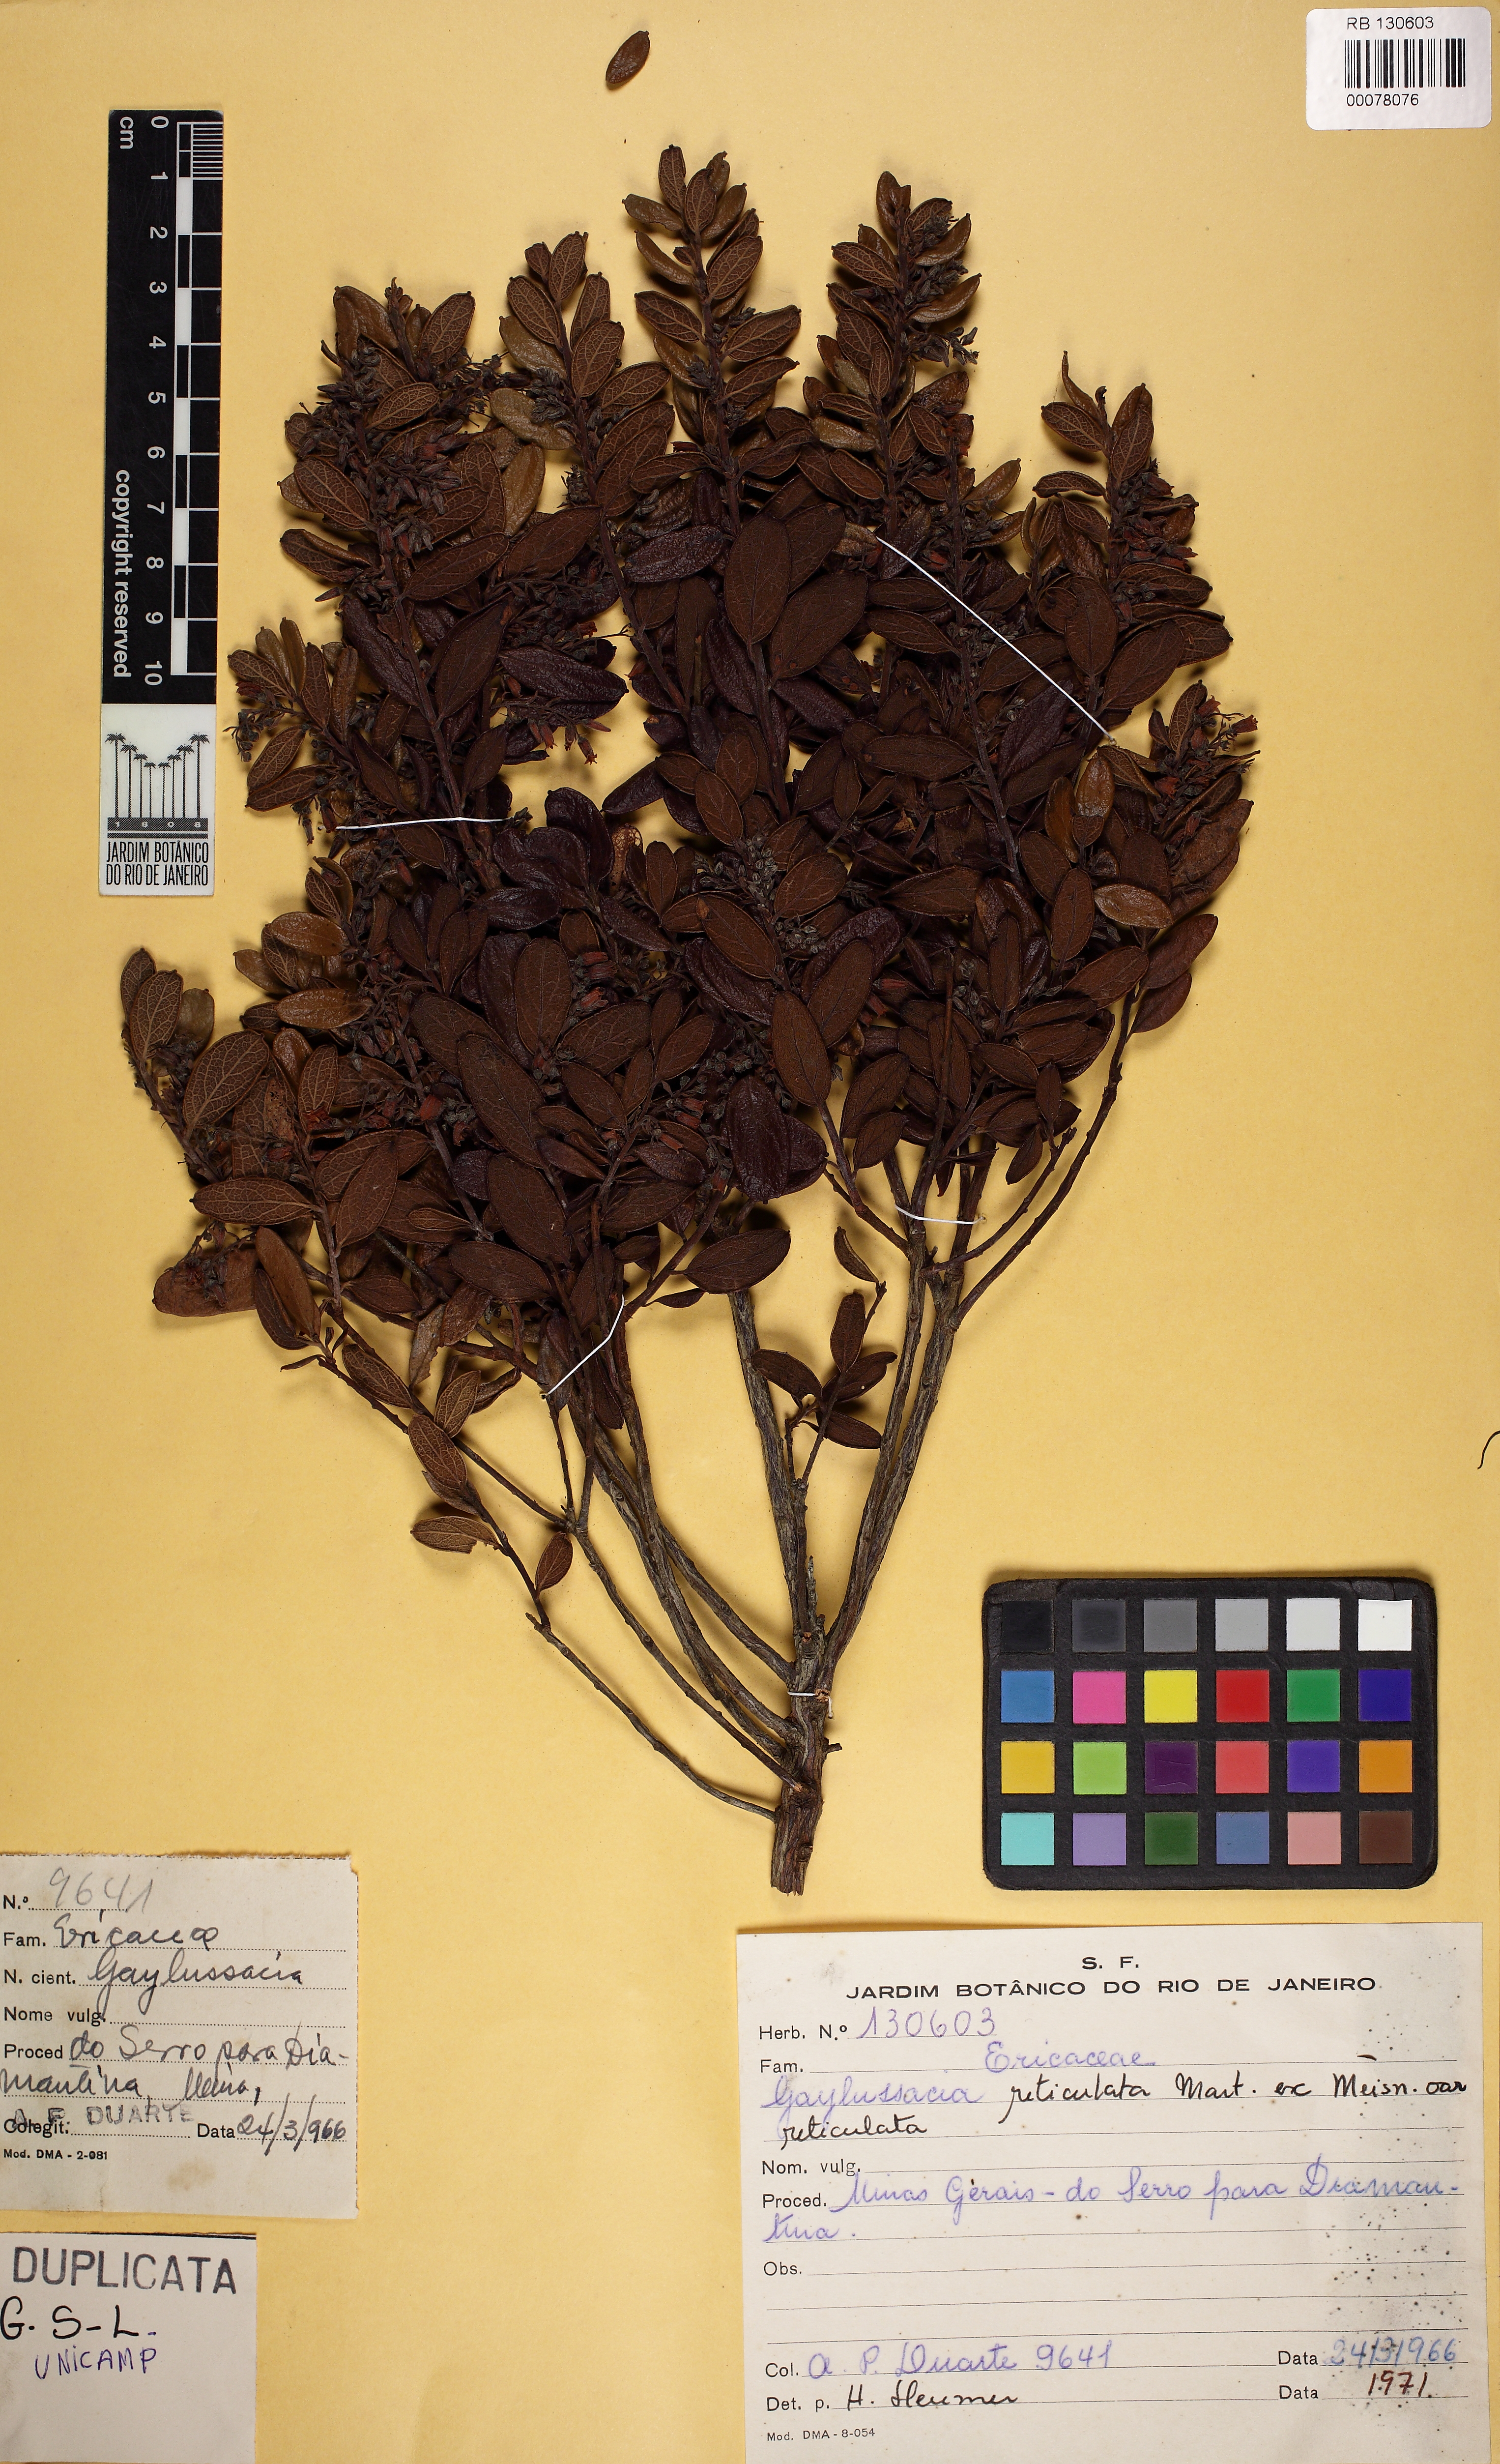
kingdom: Plantae
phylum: Tracheophyta
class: Magnoliopsida
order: Ericales
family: Ericaceae
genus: Gaylussacia
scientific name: Gaylussacia reticulata
